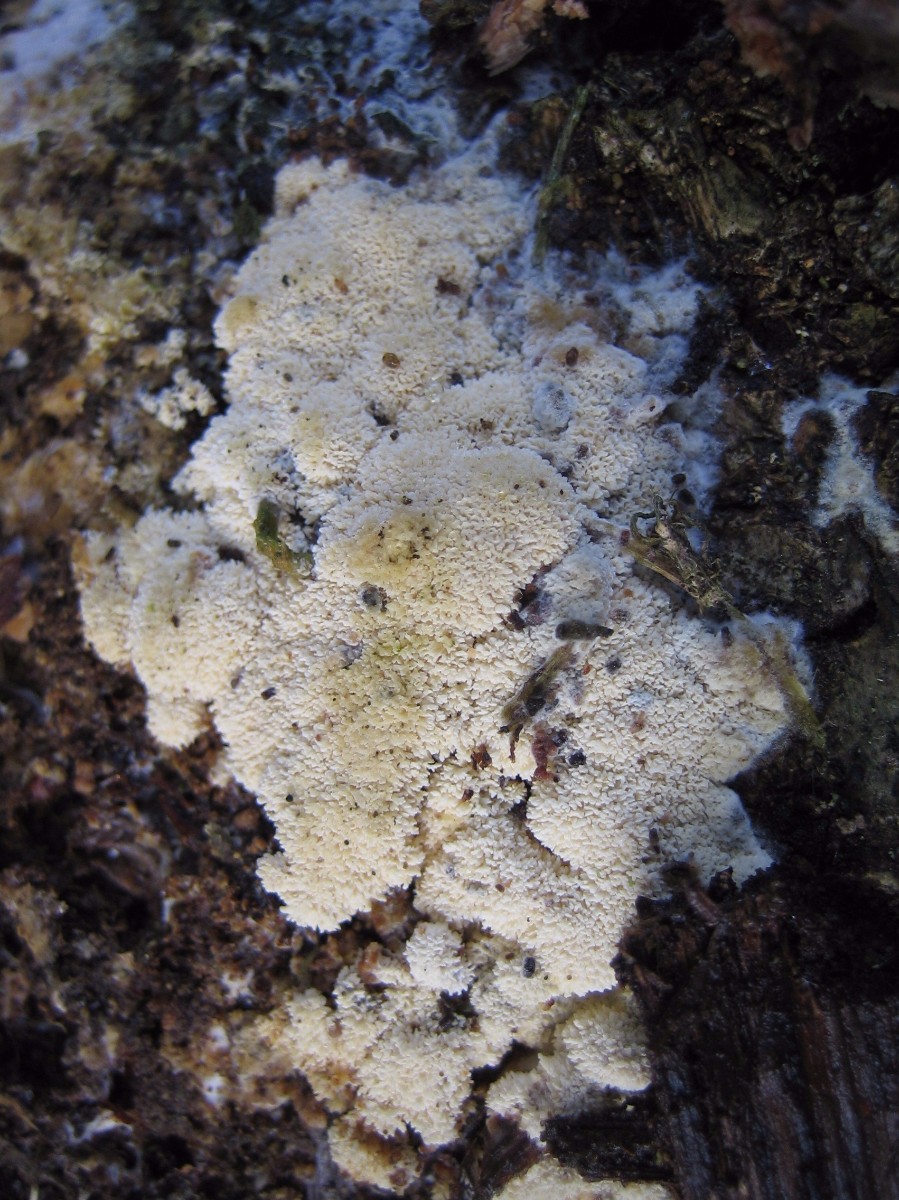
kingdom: Fungi
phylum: Basidiomycota
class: Agaricomycetes
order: Hymenochaetales
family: Schizoporaceae
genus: Xylodon
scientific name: Xylodon
